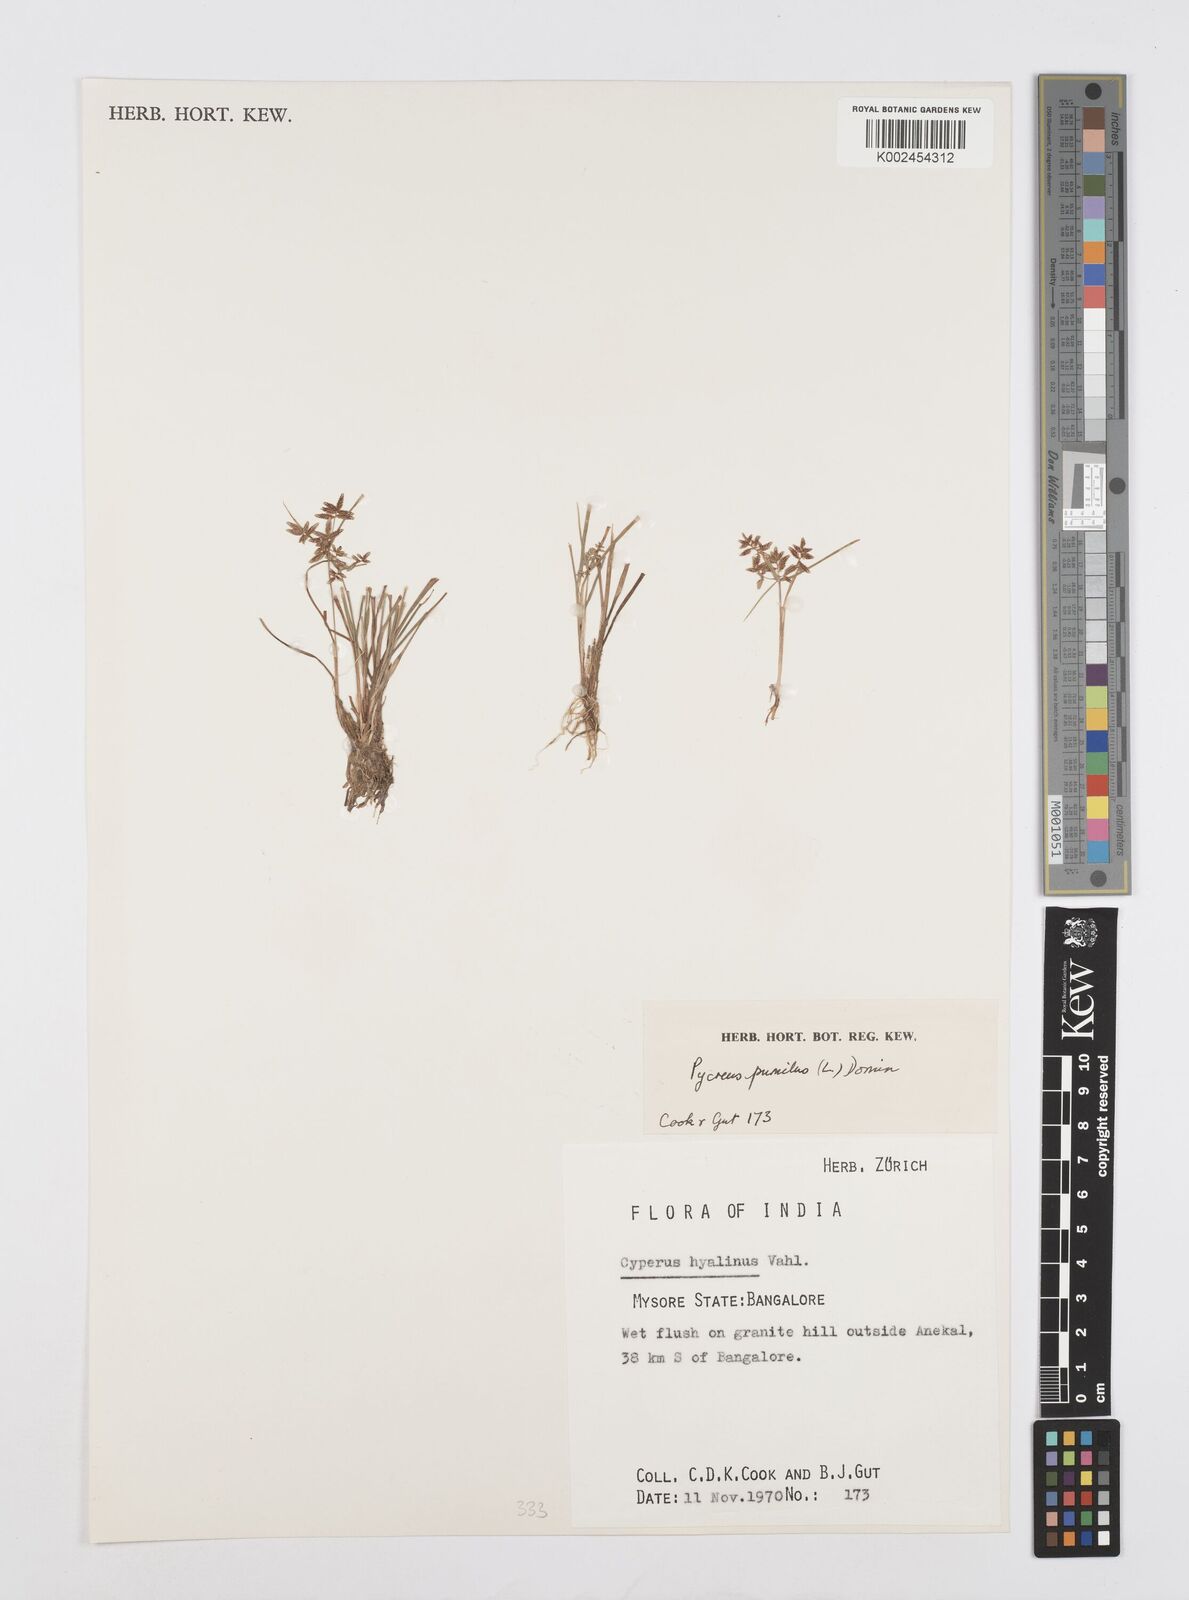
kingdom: Plantae
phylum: Tracheophyta
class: Liliopsida
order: Poales
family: Cyperaceae
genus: Cyperus
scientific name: Cyperus pumilus
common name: Low flatsedge
